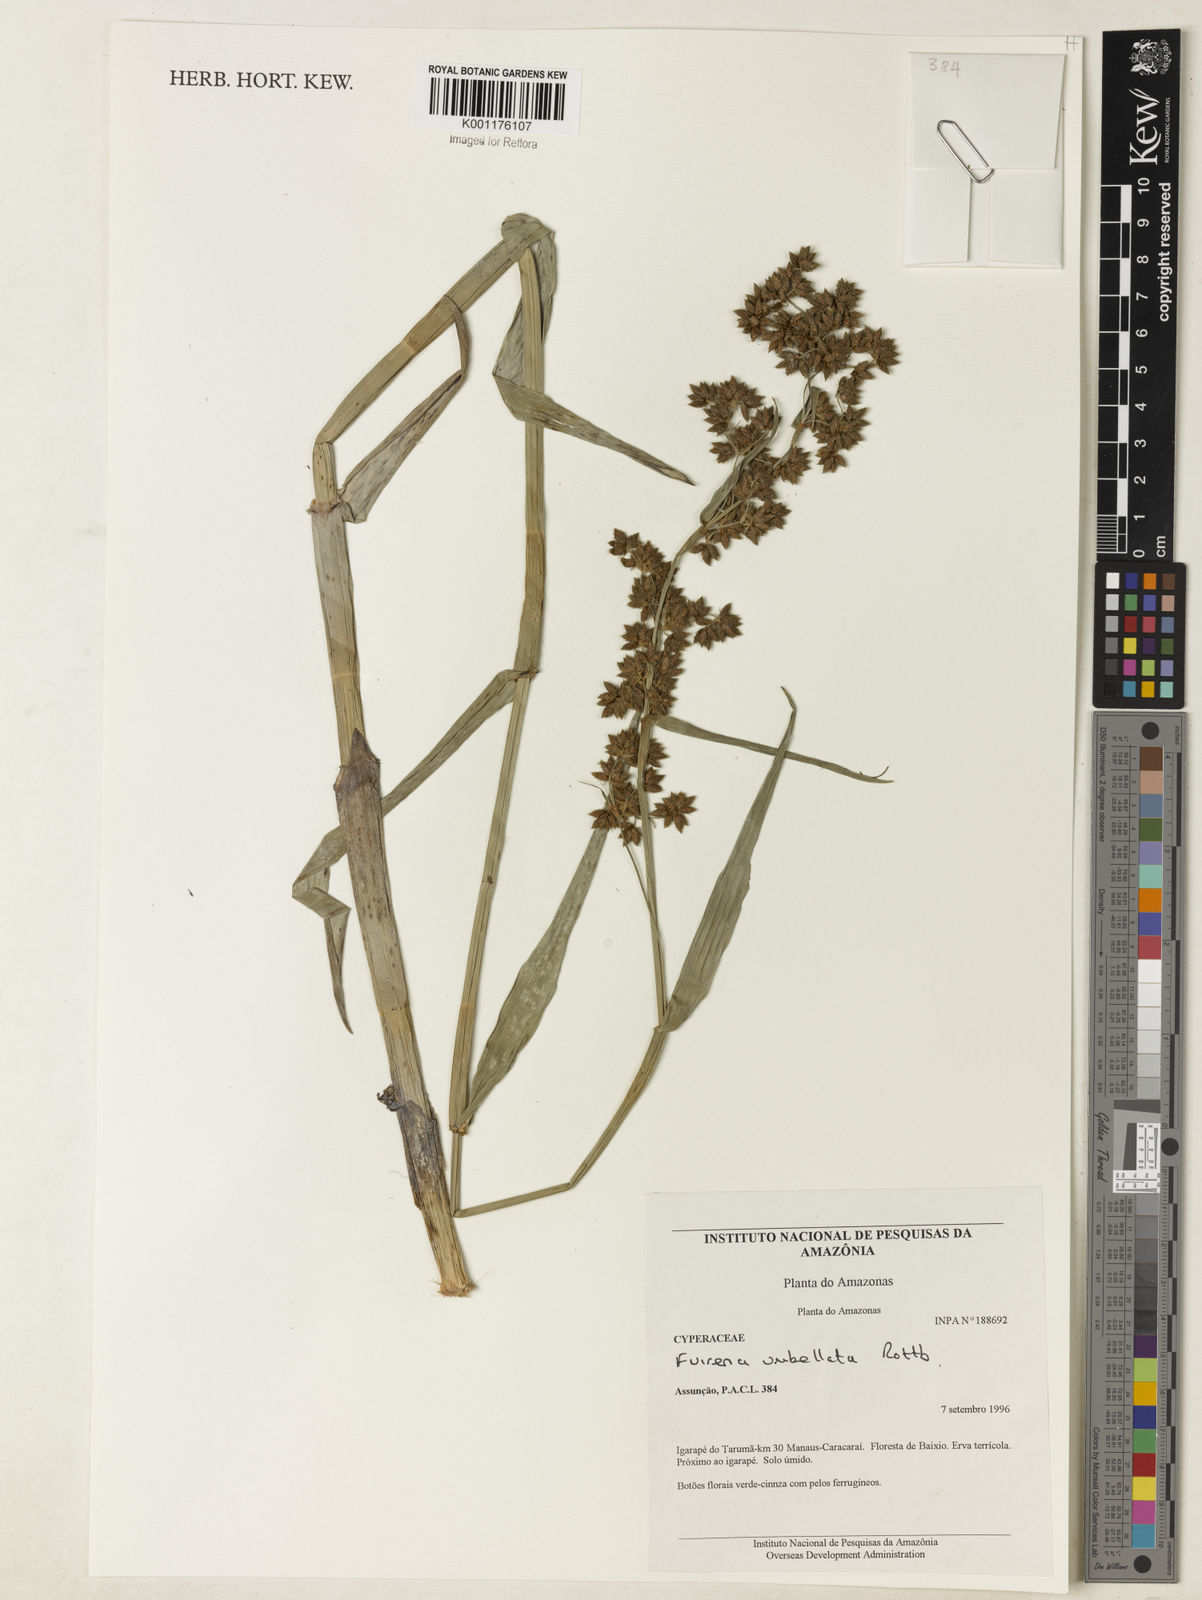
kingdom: Plantae
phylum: Tracheophyta
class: Liliopsida
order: Poales
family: Cyperaceae
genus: Fuirena
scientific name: Fuirena umbellata
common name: Yefen
